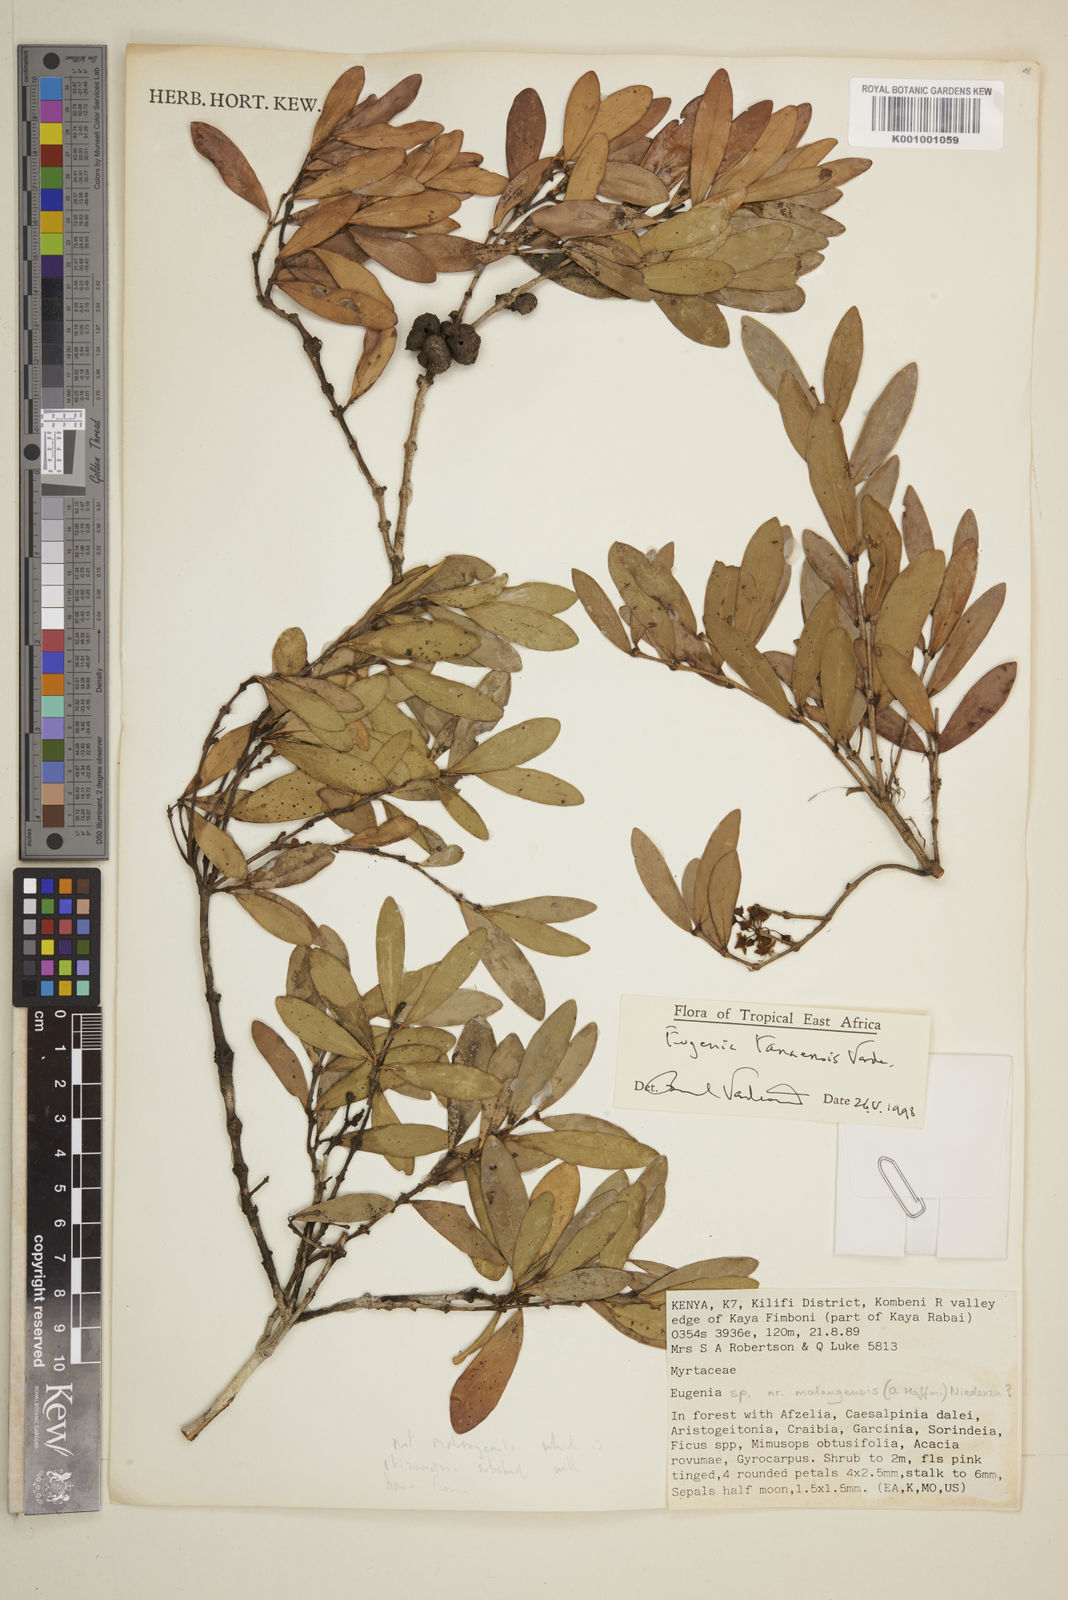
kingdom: Plantae
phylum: Tracheophyta
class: Magnoliopsida
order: Myrtales
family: Myrtaceae
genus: Eugenia
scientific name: Eugenia tanaensis
